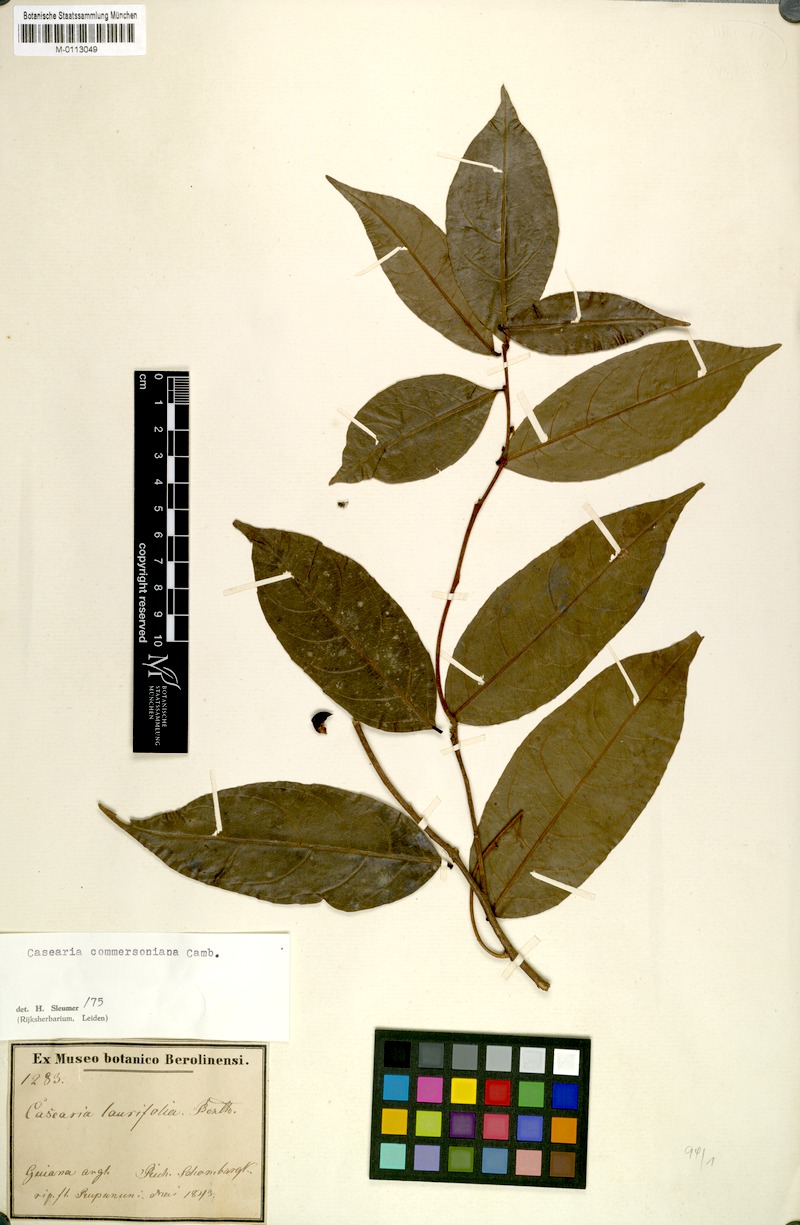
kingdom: Plantae
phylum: Tracheophyta
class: Magnoliopsida
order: Malpighiales
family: Salicaceae
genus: Piparea
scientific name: Piparea dentata
